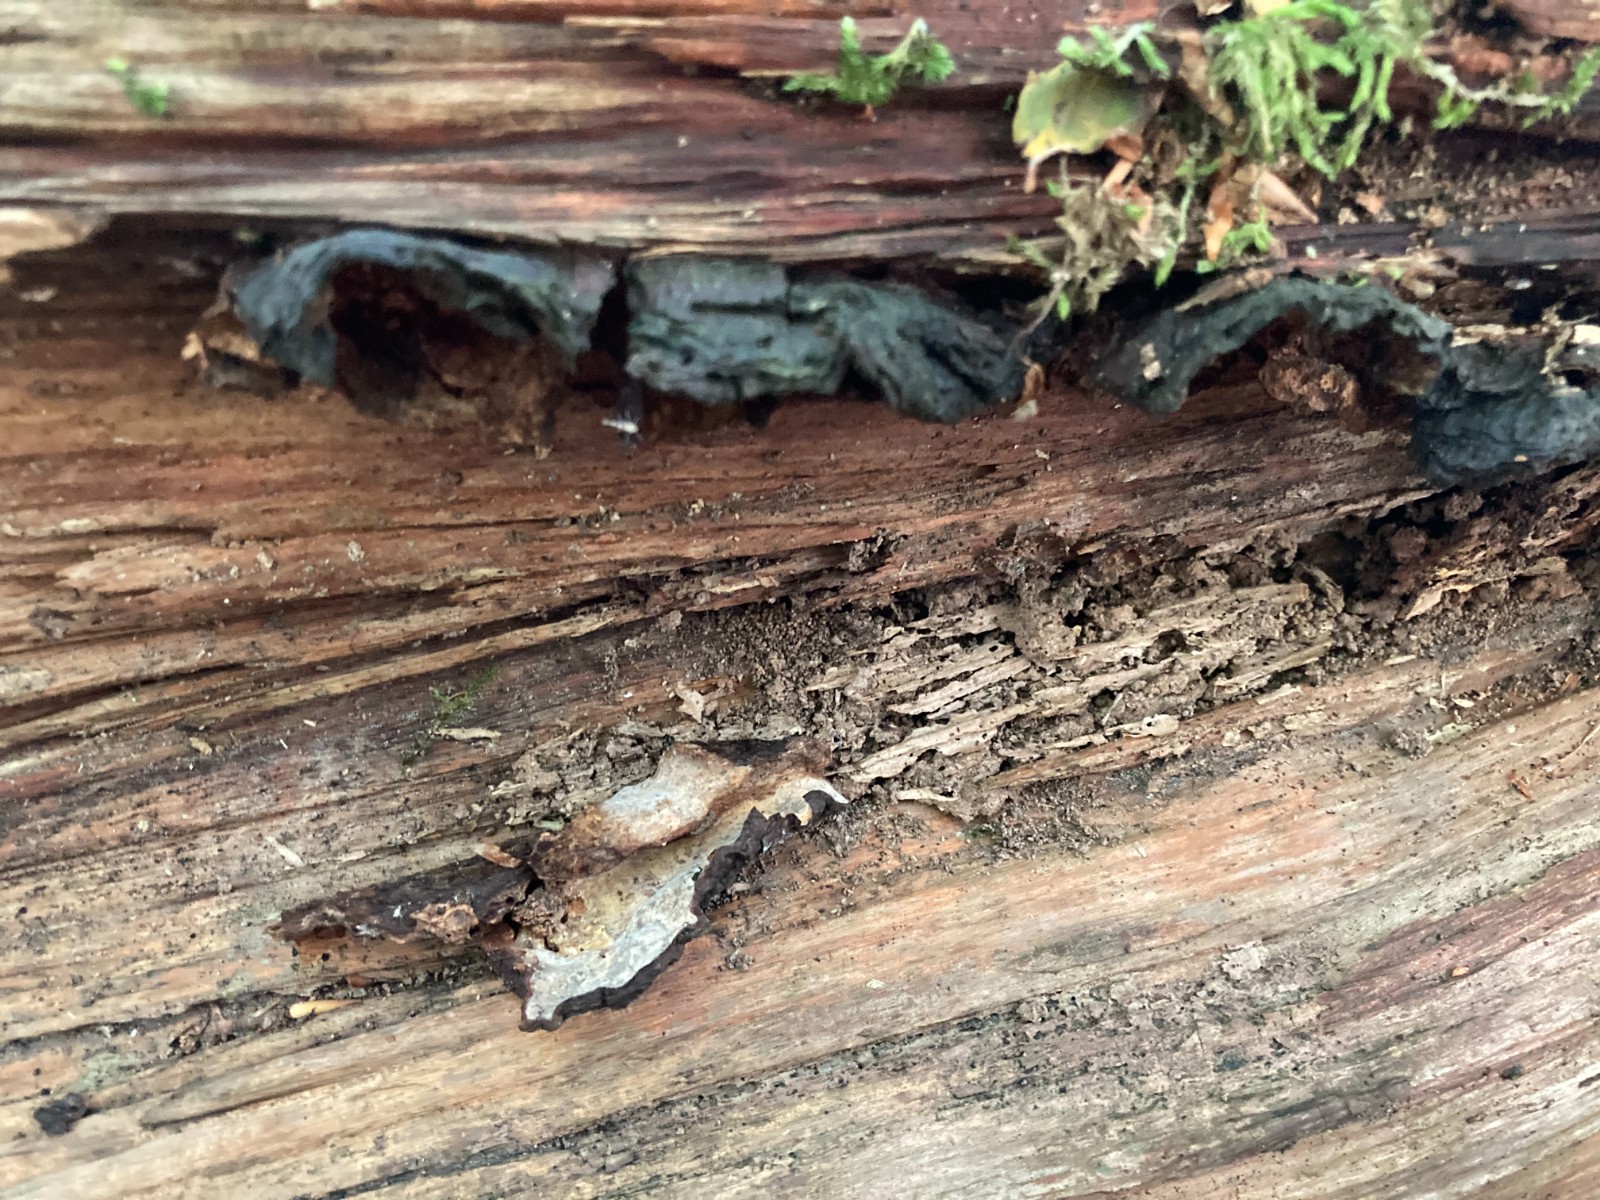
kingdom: Fungi
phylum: Basidiomycota
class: Agaricomycetes
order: Hymenochaetales
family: Hymenochaetaceae
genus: Hymenochaete
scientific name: Hymenochaete rubiginosa
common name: stiv ruslædersvamp
